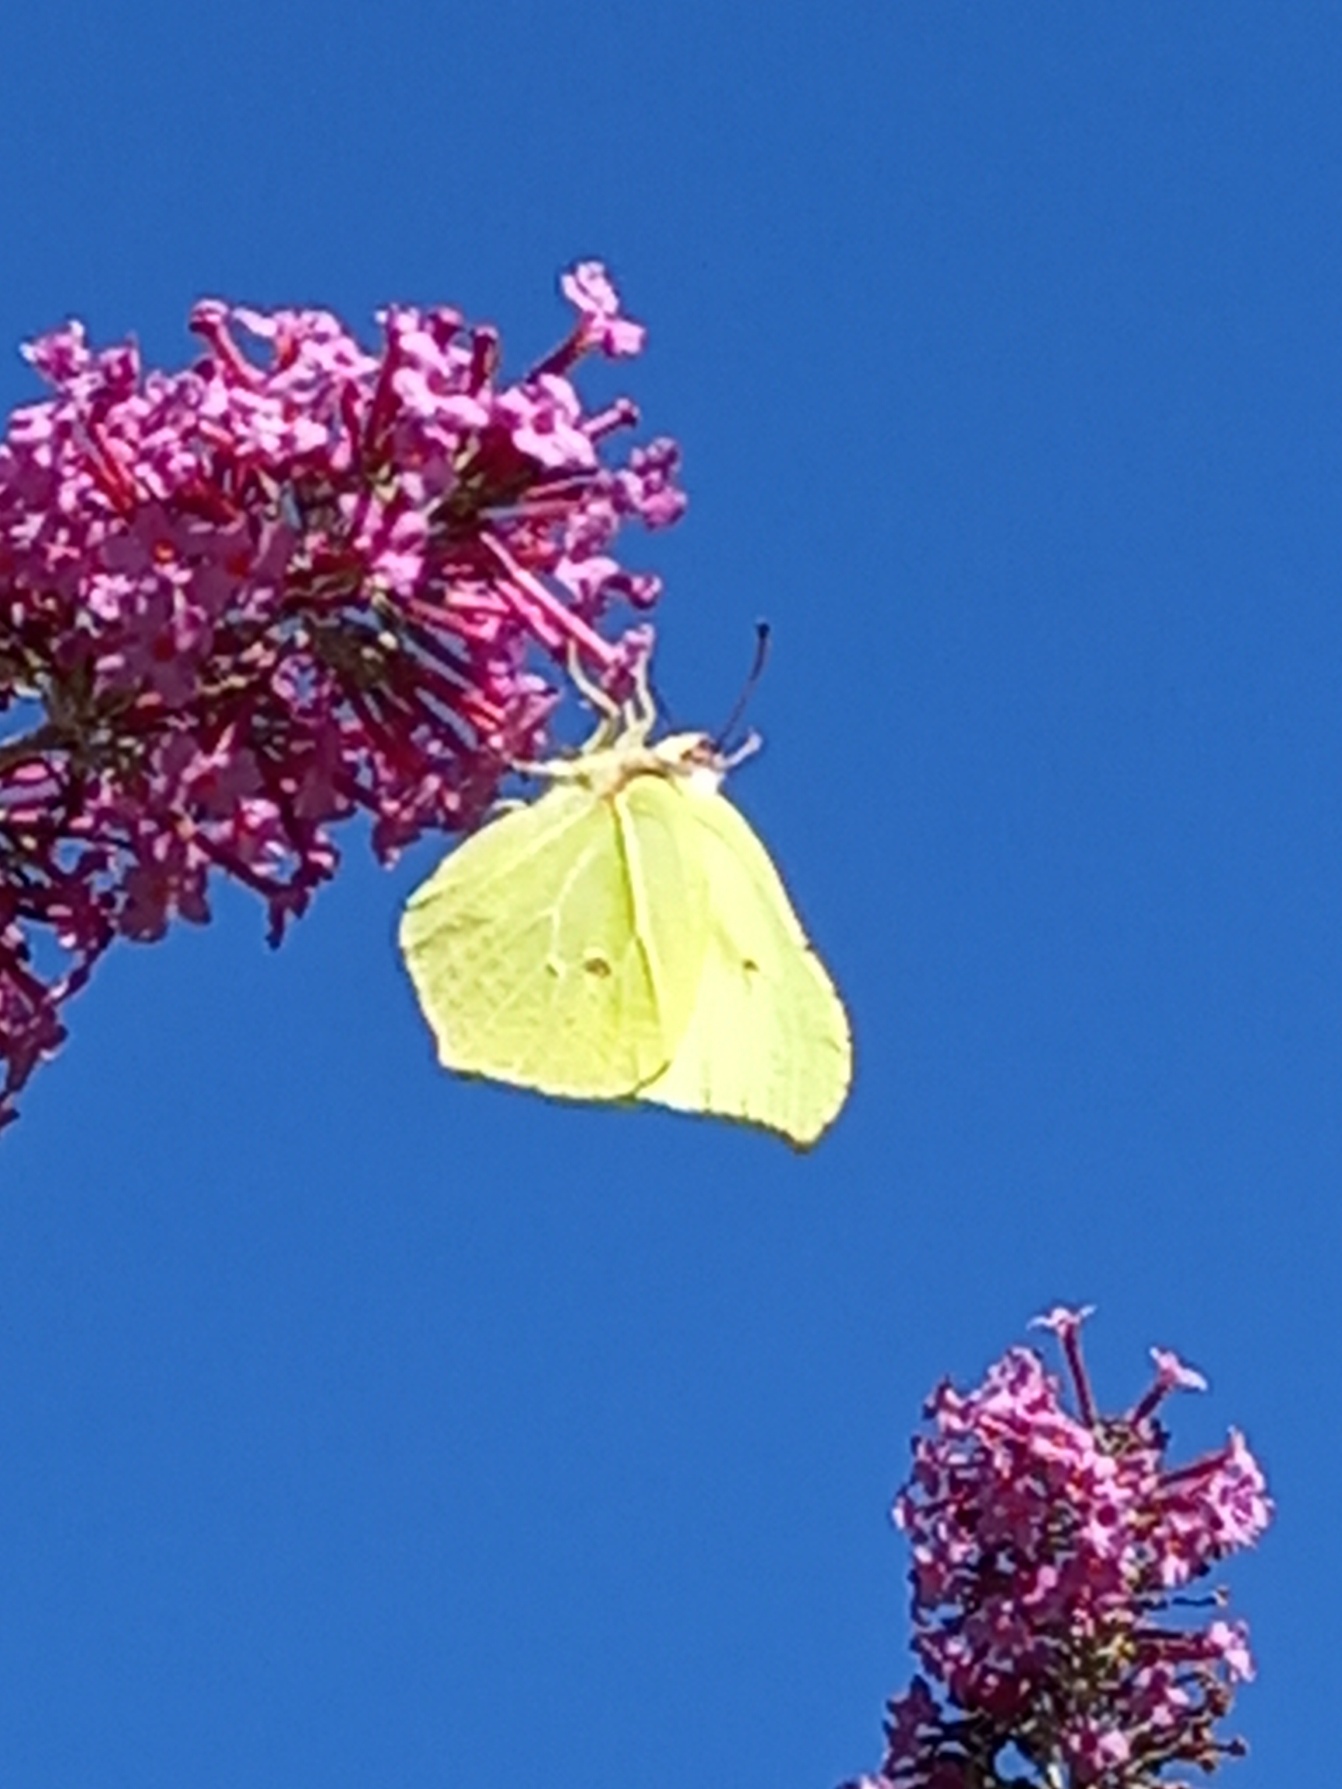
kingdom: Animalia
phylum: Arthropoda
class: Insecta
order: Lepidoptera
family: Pieridae
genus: Gonepteryx
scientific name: Gonepteryx rhamni
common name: Citronsommerfugl
